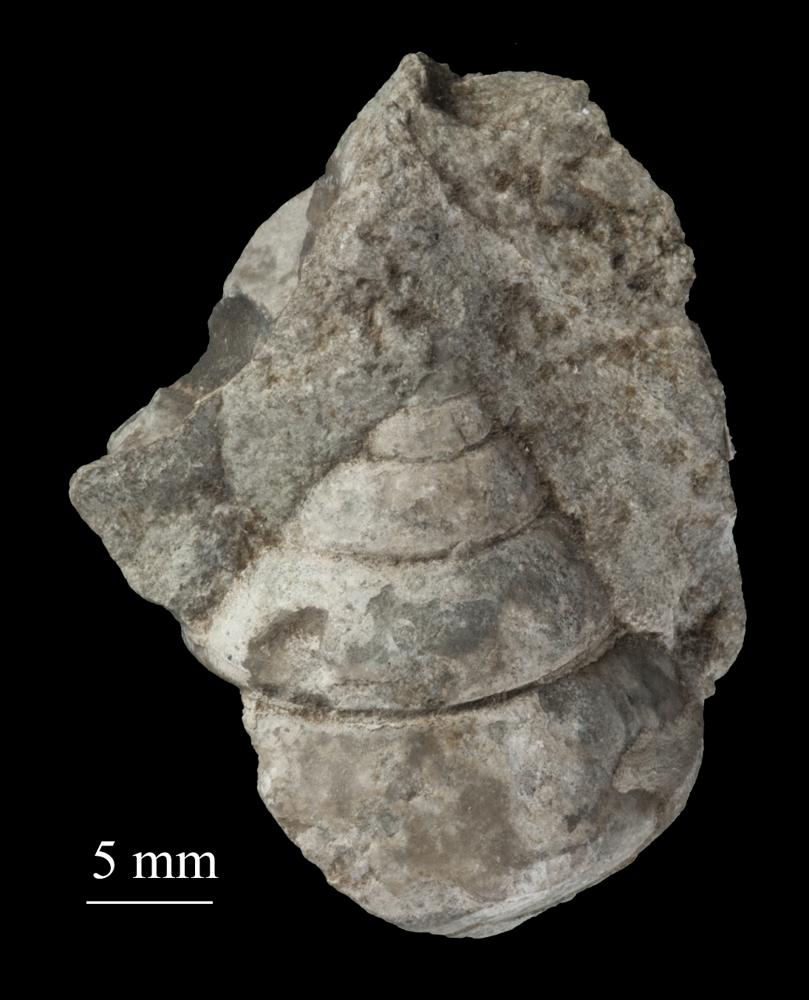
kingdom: Animalia
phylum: Mollusca
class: Gastropoda
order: Trochida
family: Trochidae
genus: Trochus
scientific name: Trochus ellipticus
